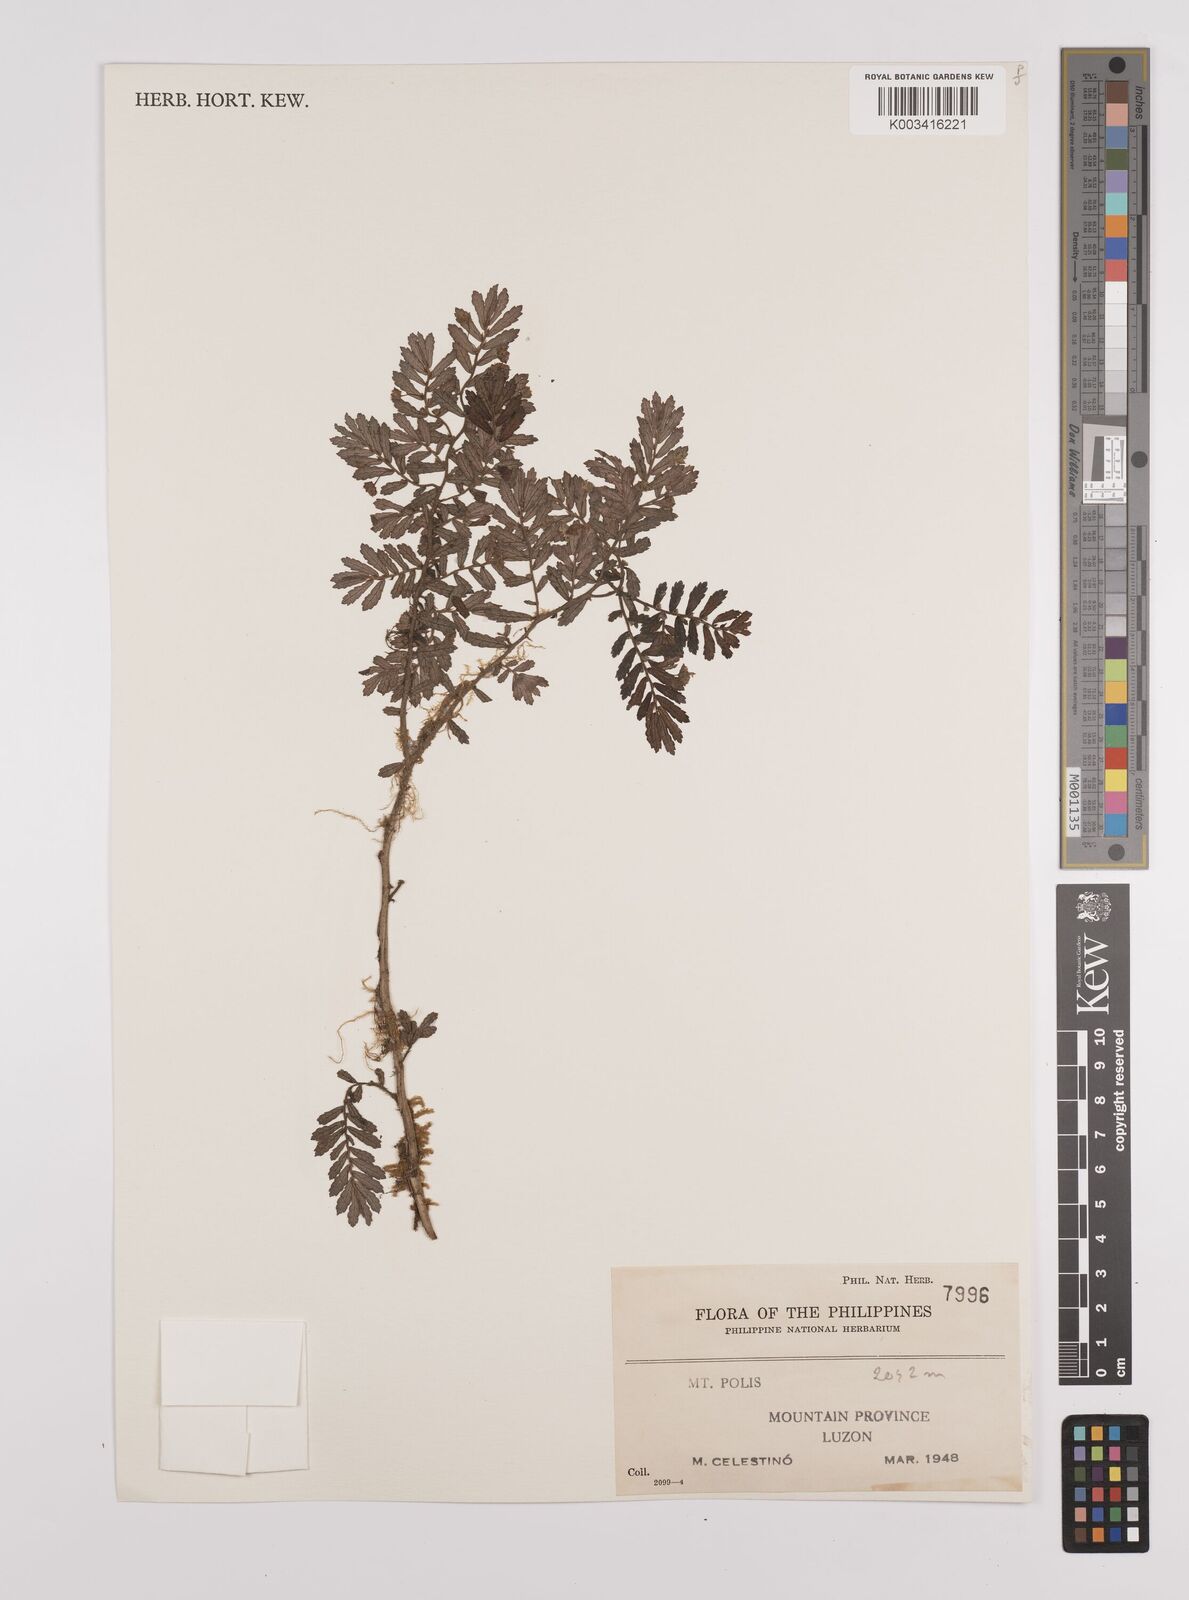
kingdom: Plantae
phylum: Tracheophyta
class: Magnoliopsida
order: Rosales
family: Urticaceae
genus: Elatostema
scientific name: Elatostema
